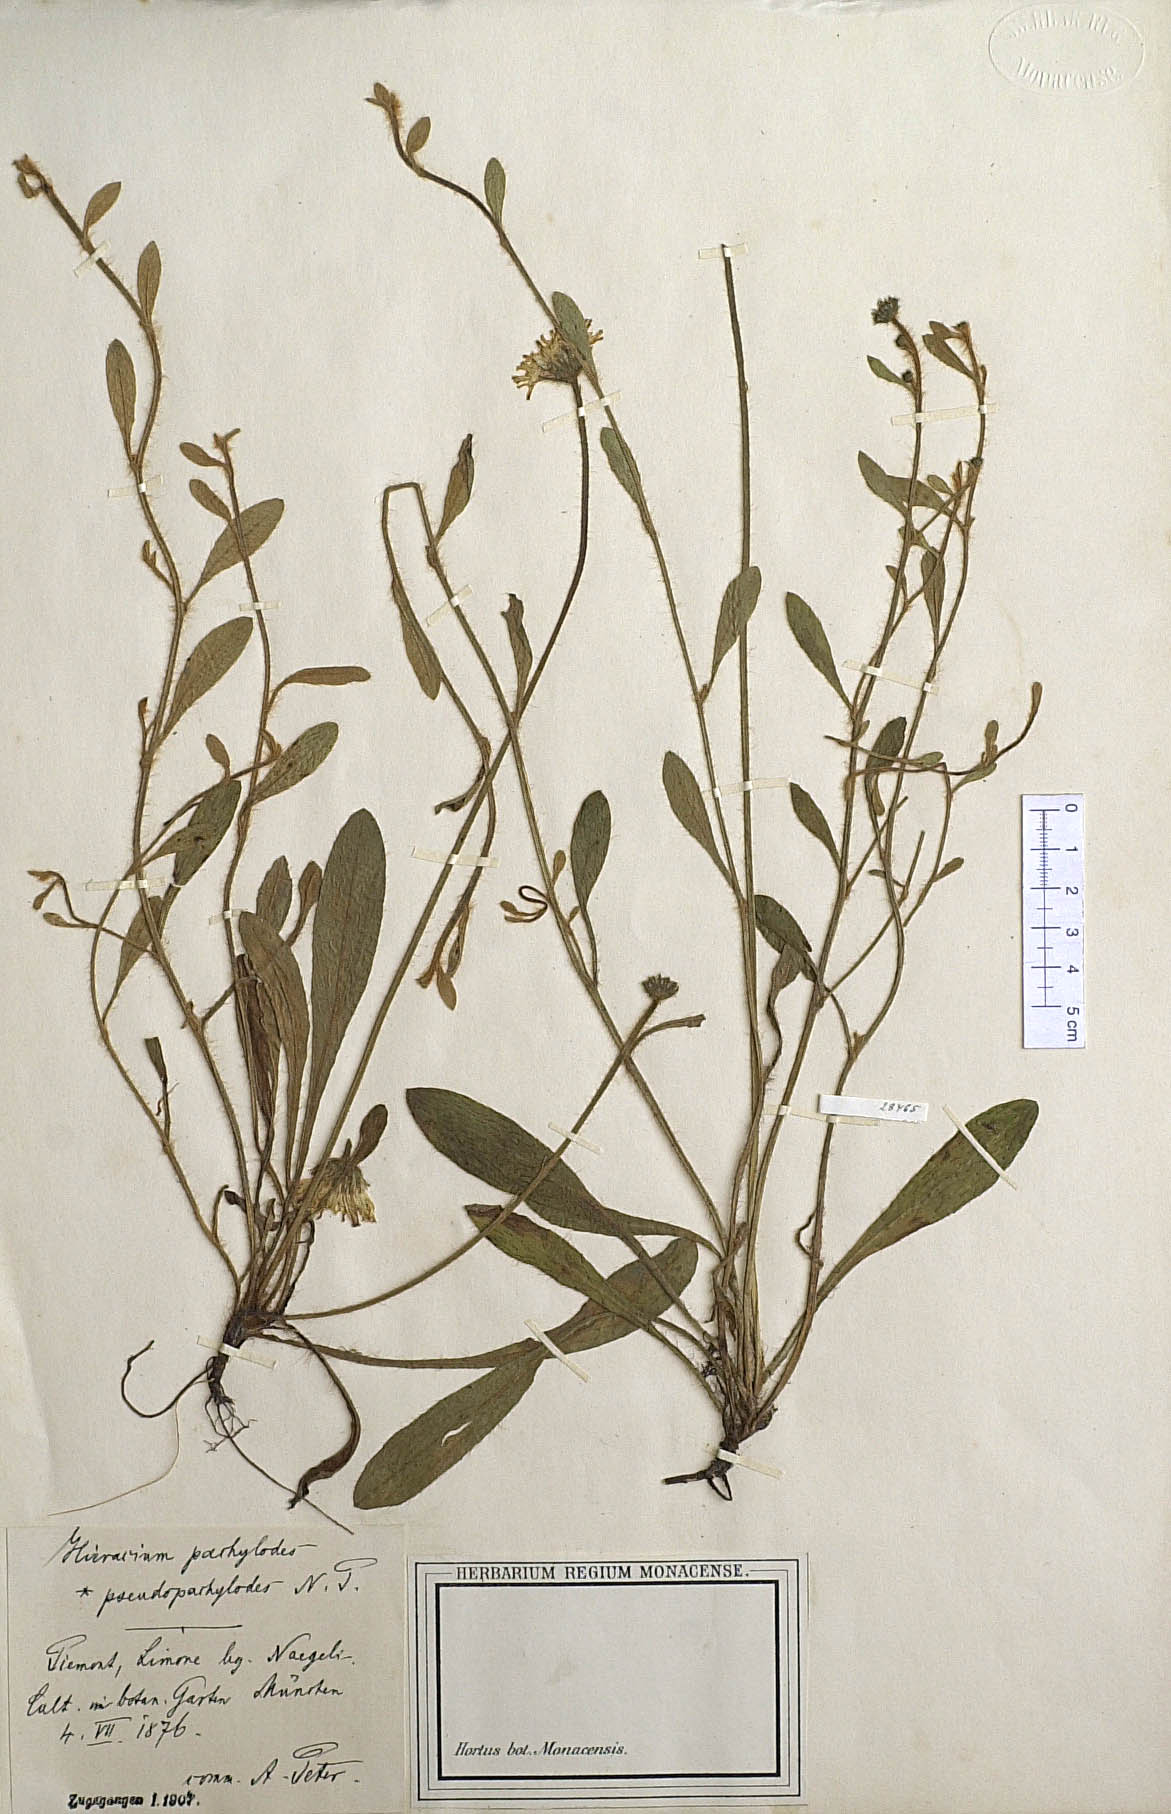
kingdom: Plantae
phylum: Tracheophyta
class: Magnoliopsida
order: Asterales
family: Asteraceae
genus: Pilosella
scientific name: Pilosella longisquama
